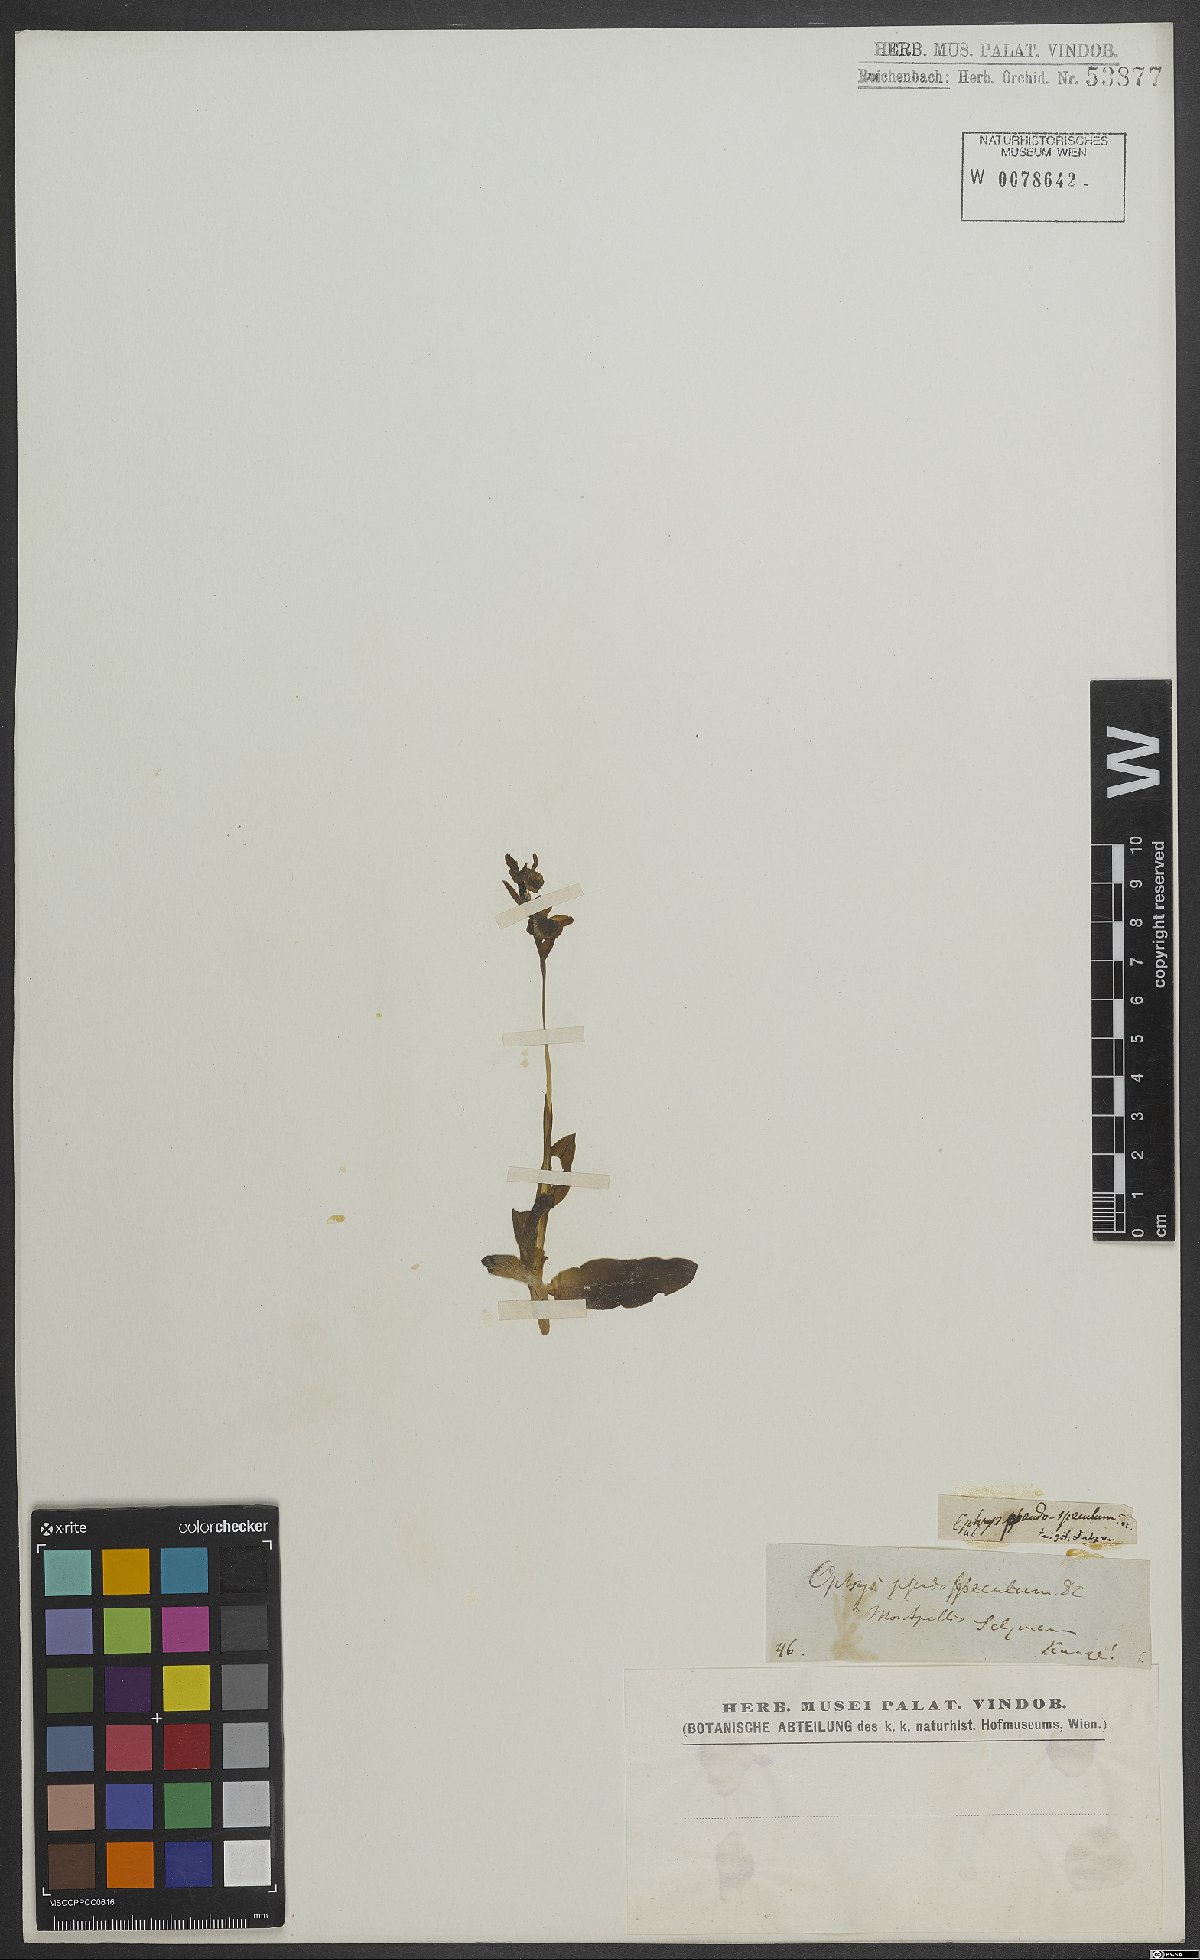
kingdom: Plantae
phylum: Tracheophyta
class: Liliopsida
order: Asparagales
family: Orchidaceae
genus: Ophrys
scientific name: Ophrys sphegodes
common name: Early spider-orchid
